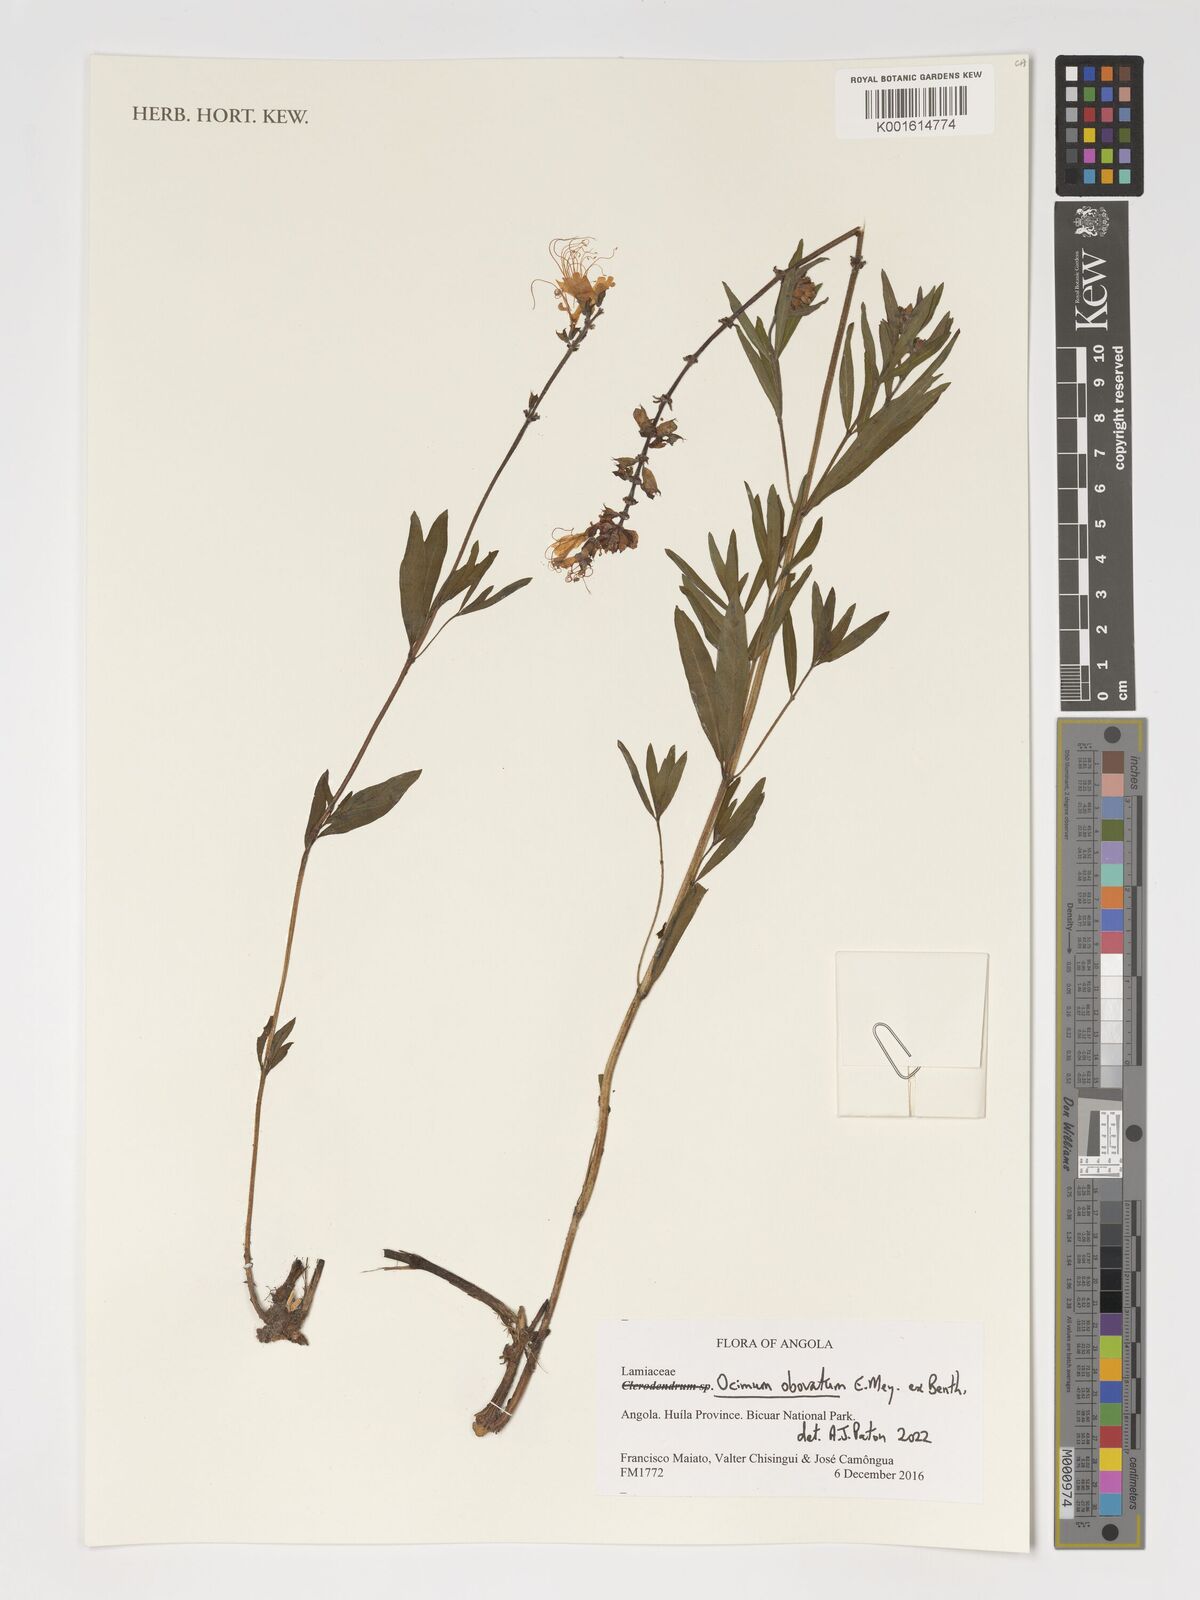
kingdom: Plantae
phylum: Tracheophyta
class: Magnoliopsida
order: Lamiales
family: Lamiaceae
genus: Ocimum
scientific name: Ocimum obovatum
